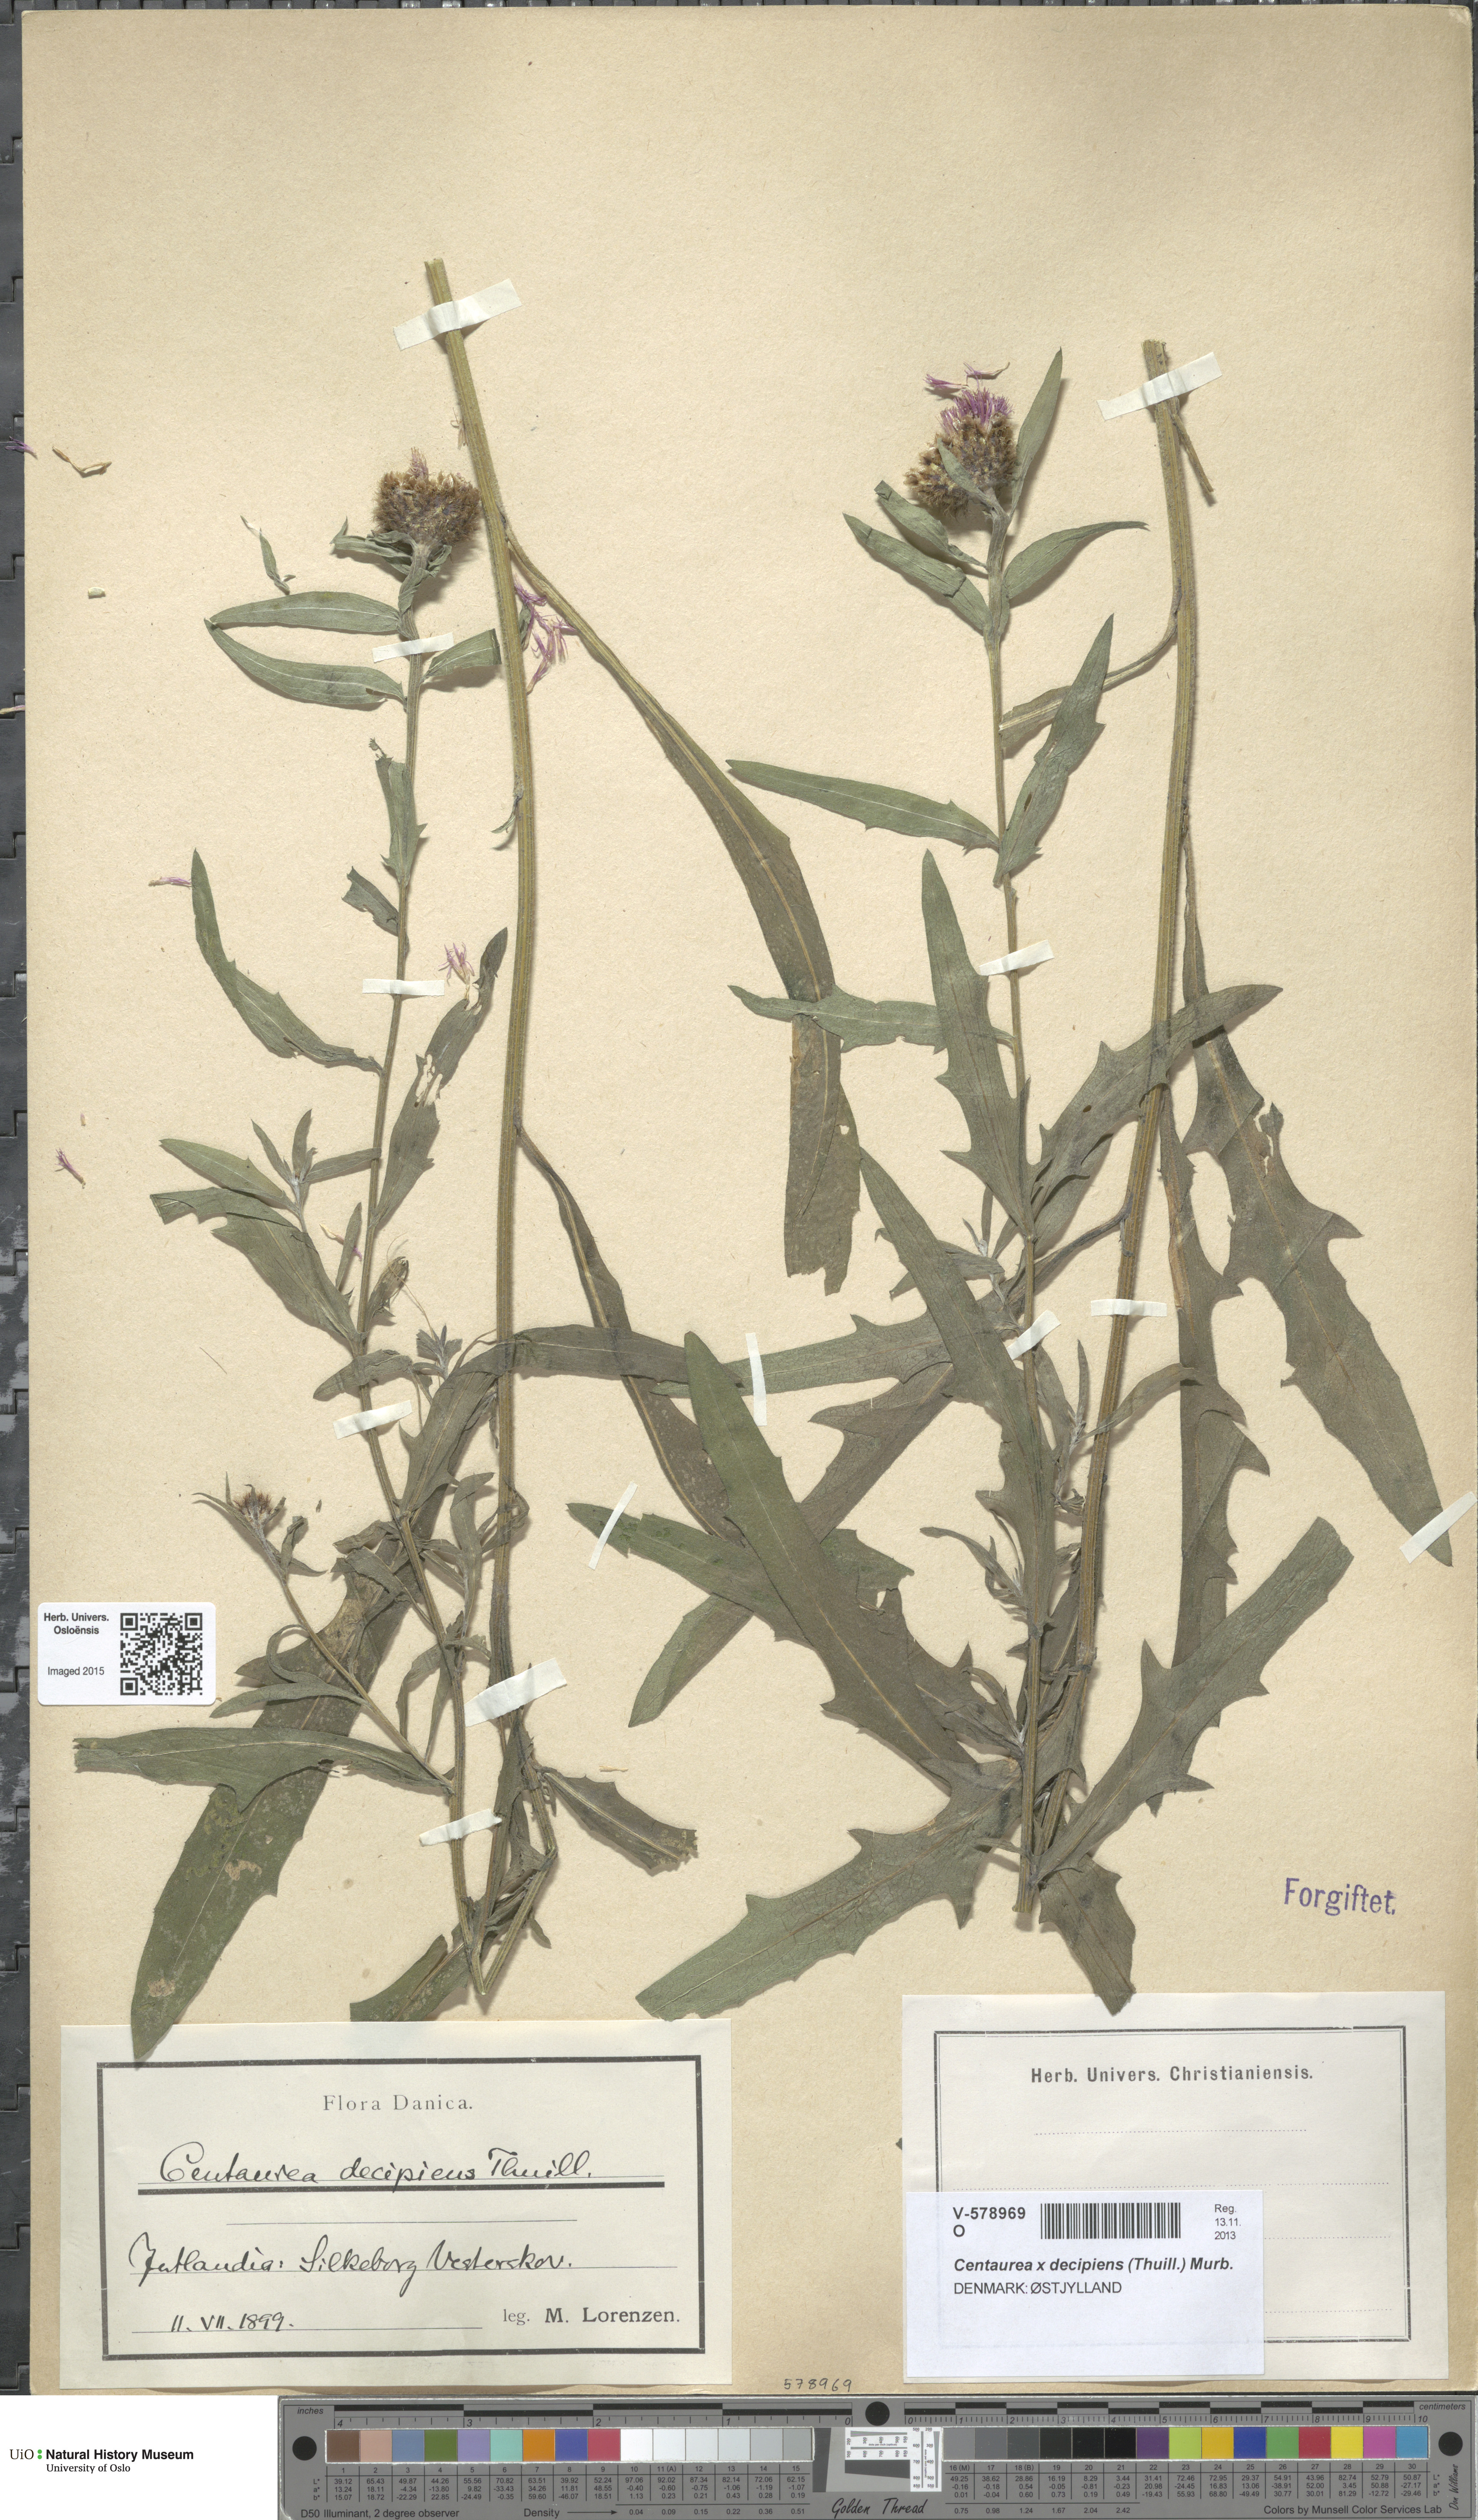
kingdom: Plantae
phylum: Tracheophyta
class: Magnoliopsida
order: Asterales
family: Asteraceae
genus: Centaurea
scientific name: Centaurea decipiens
